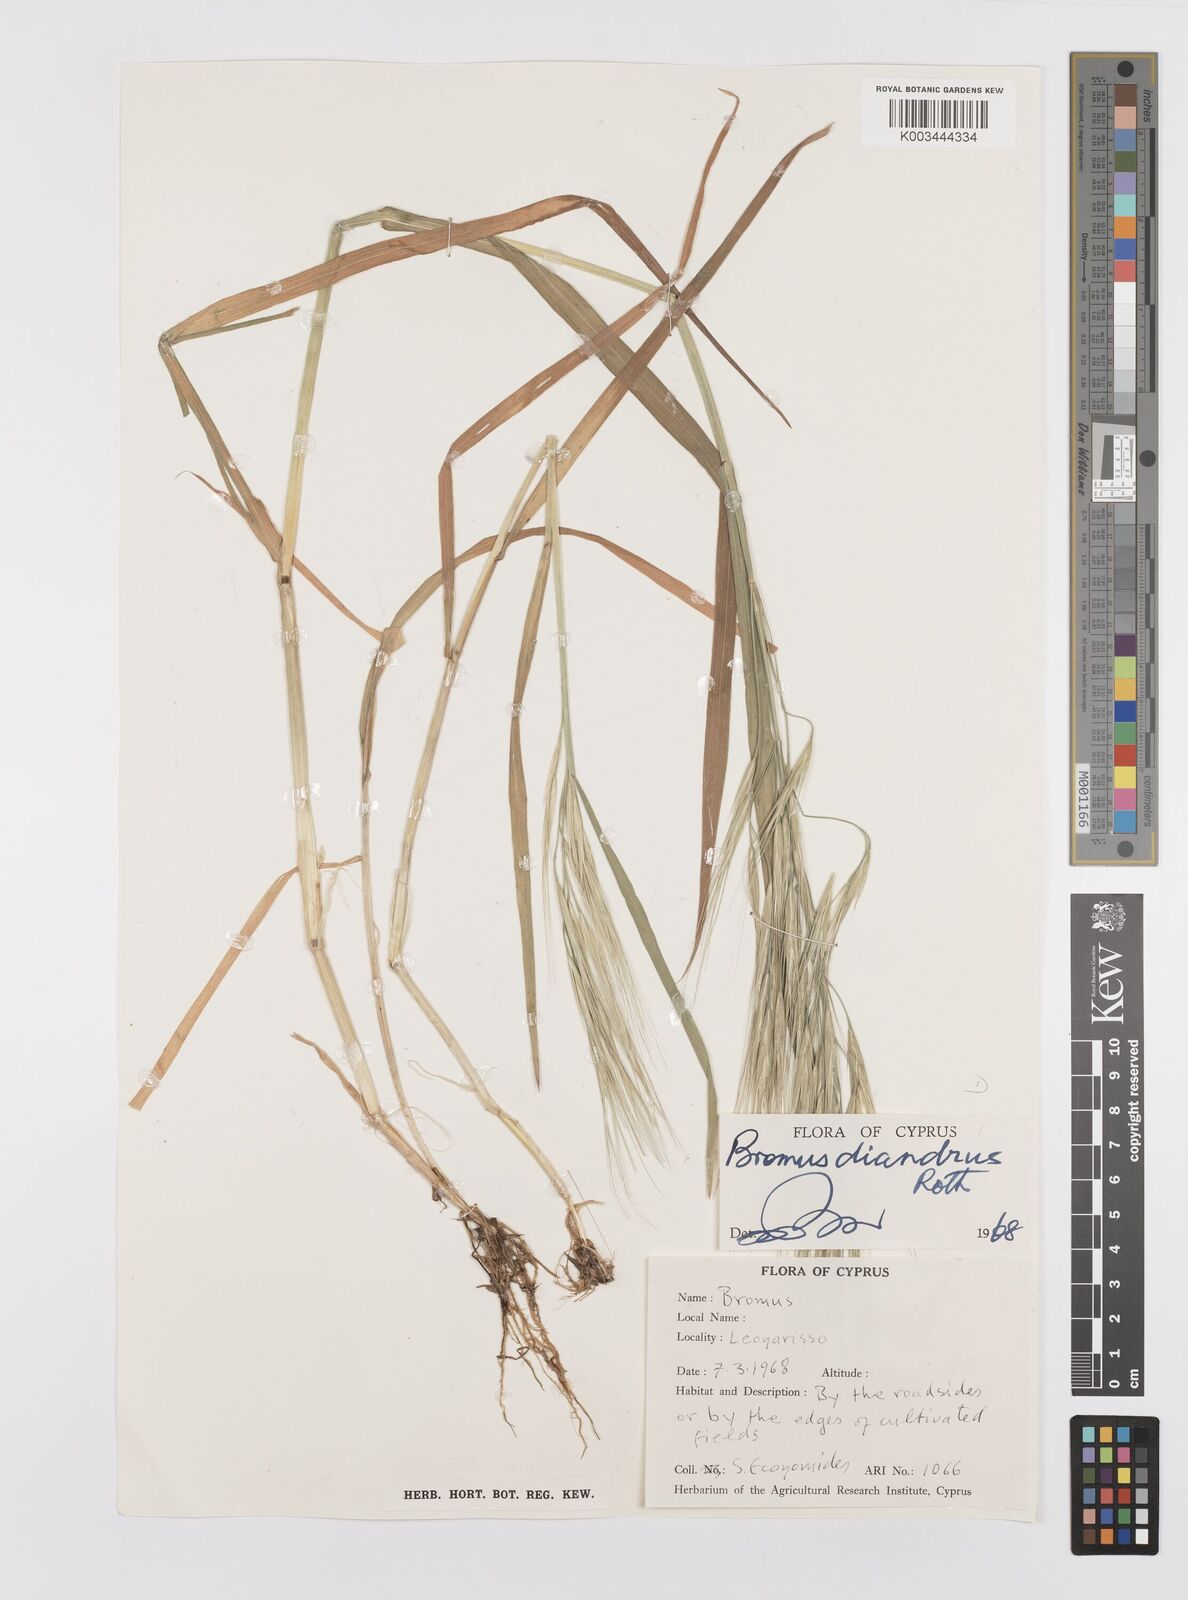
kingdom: Plantae
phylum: Tracheophyta
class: Liliopsida
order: Poales
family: Poaceae
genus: Bromus
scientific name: Bromus diandrus
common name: Ripgut brome
